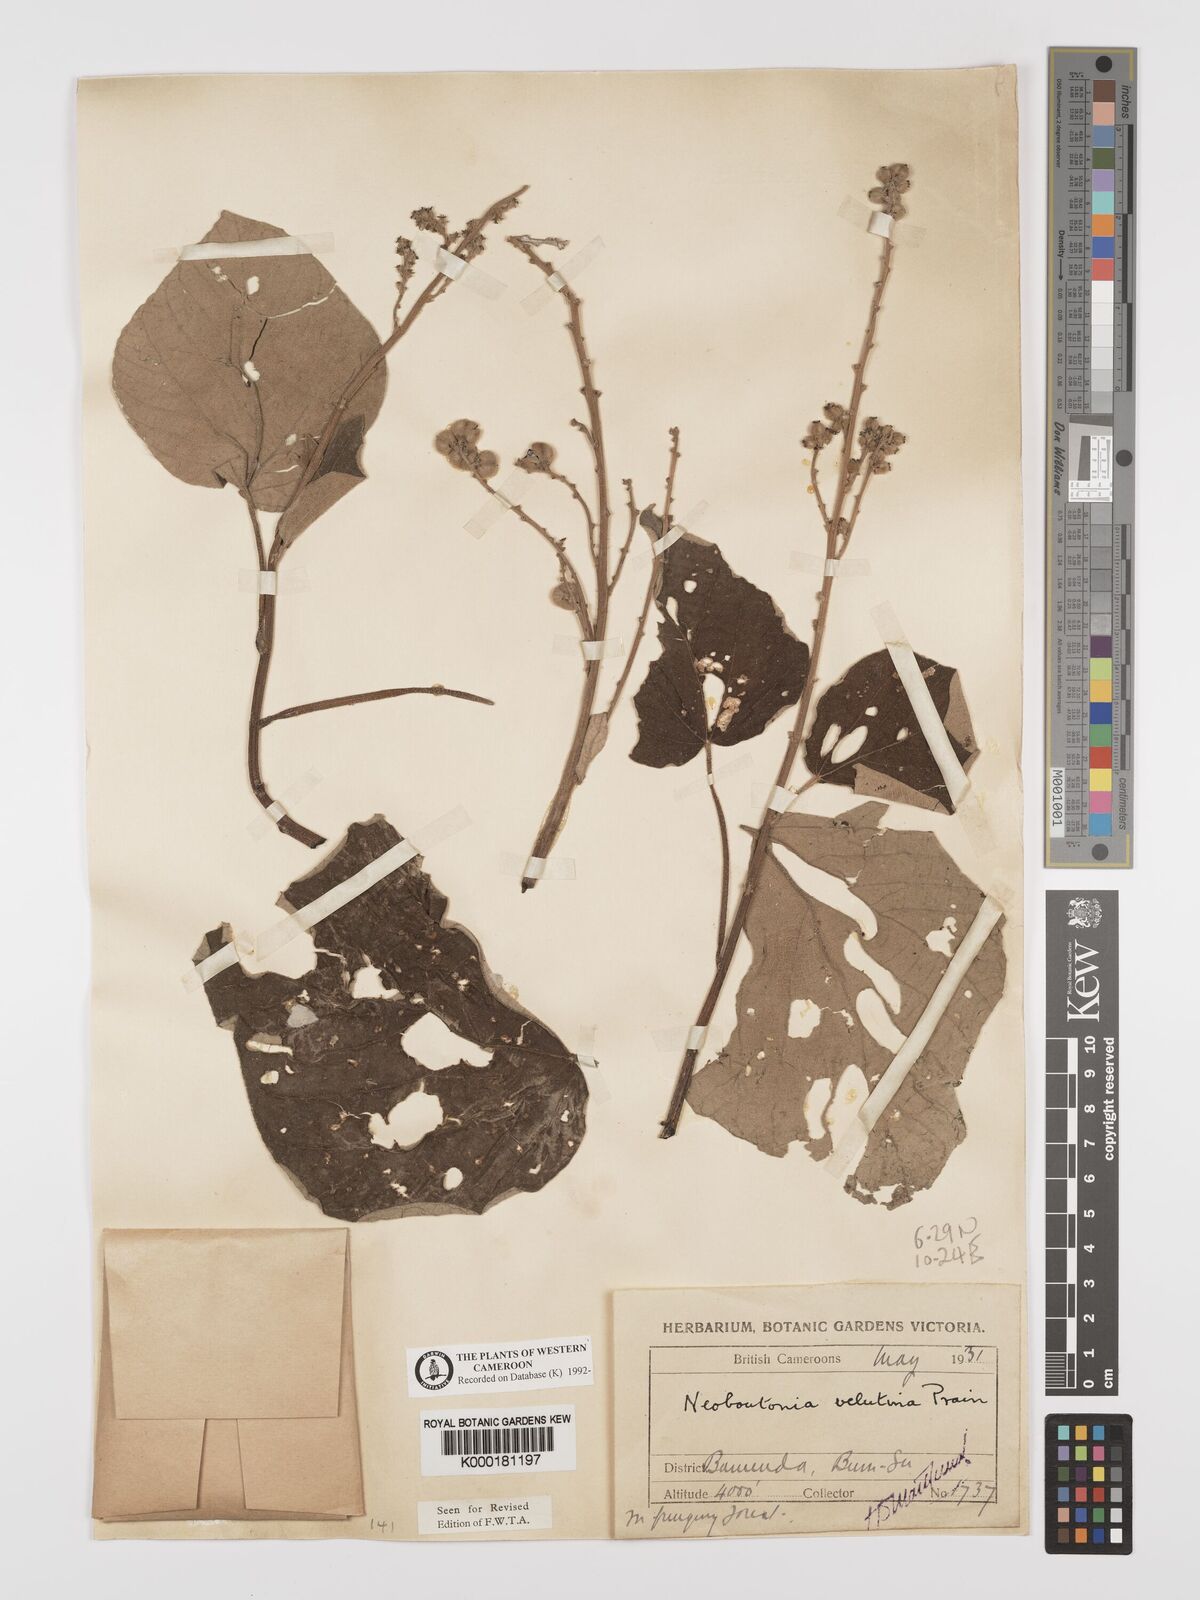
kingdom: Plantae
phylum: Tracheophyta
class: Magnoliopsida
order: Malpighiales
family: Euphorbiaceae
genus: Neoboutonia
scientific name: Neoboutonia
